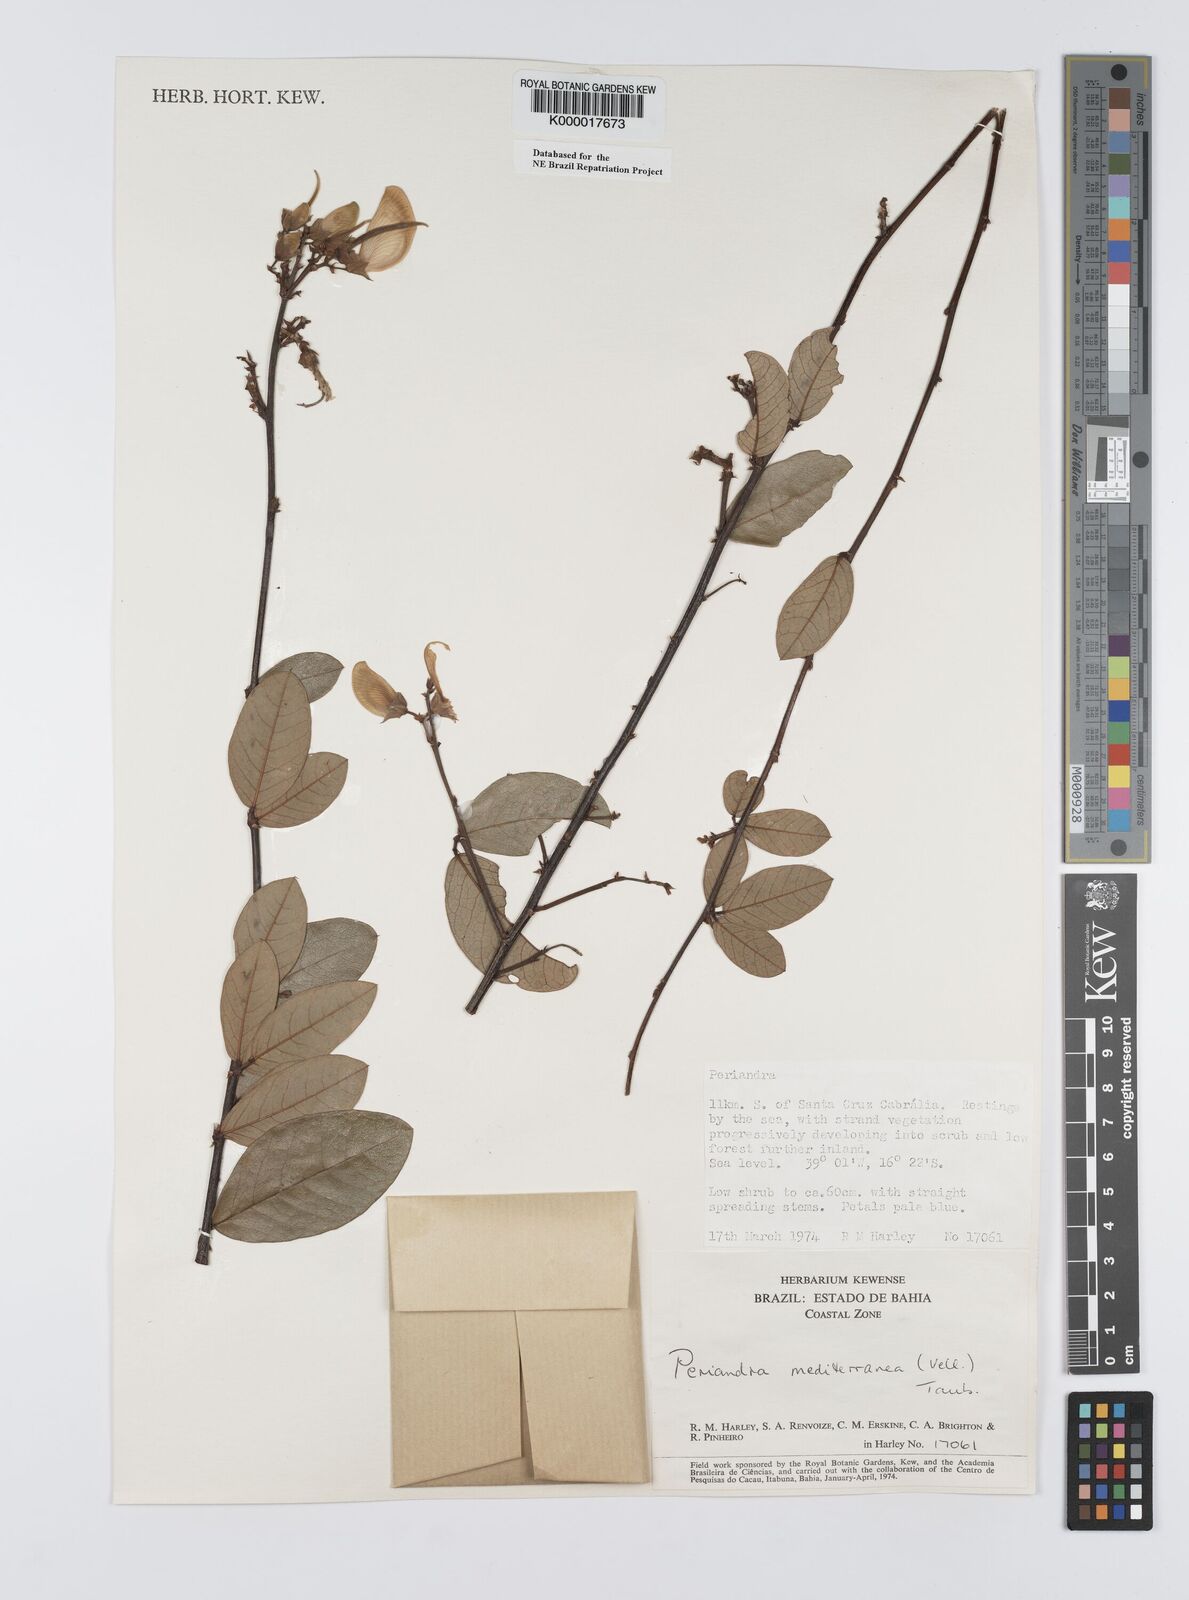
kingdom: Plantae
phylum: Tracheophyta
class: Magnoliopsida
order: Fabales
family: Fabaceae
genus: Periandra
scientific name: Periandra mediterranea
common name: Brazilian licorice
